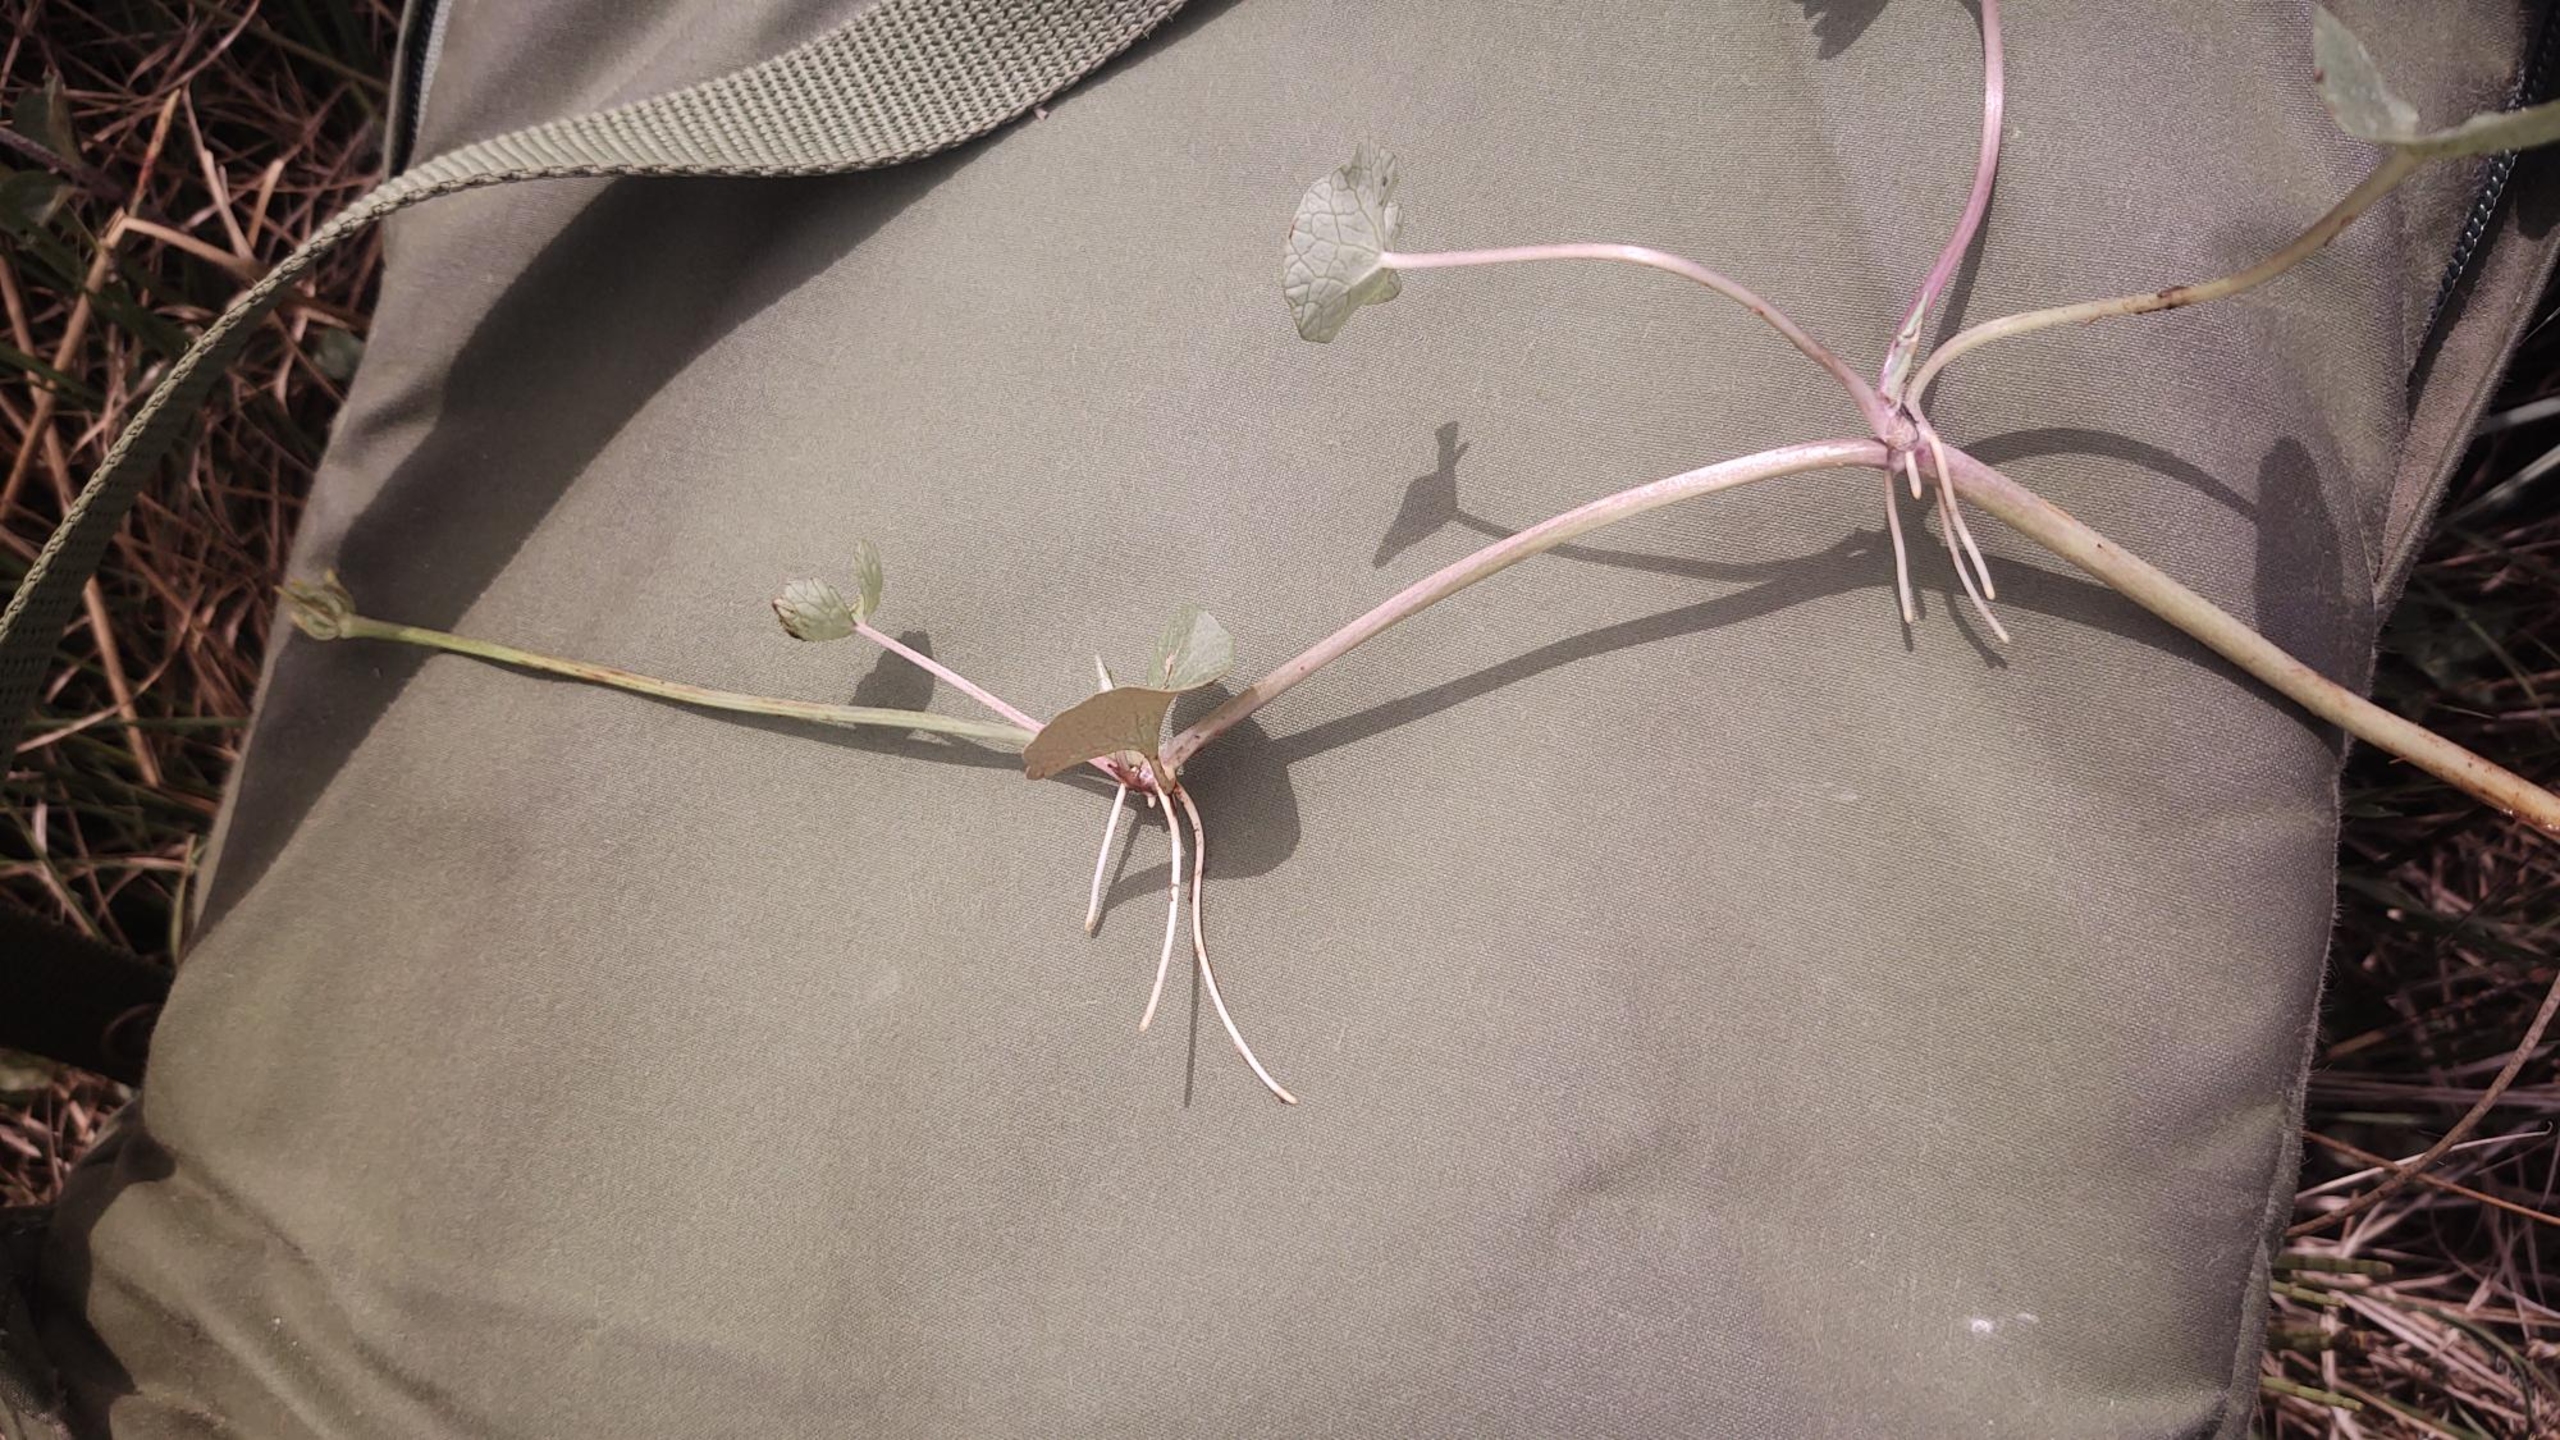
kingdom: Plantae
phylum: Tracheophyta
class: Magnoliopsida
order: Ranunculales
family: Ranunculaceae
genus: Caltha
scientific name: Caltha palustris
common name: Krybende kabbeleje
